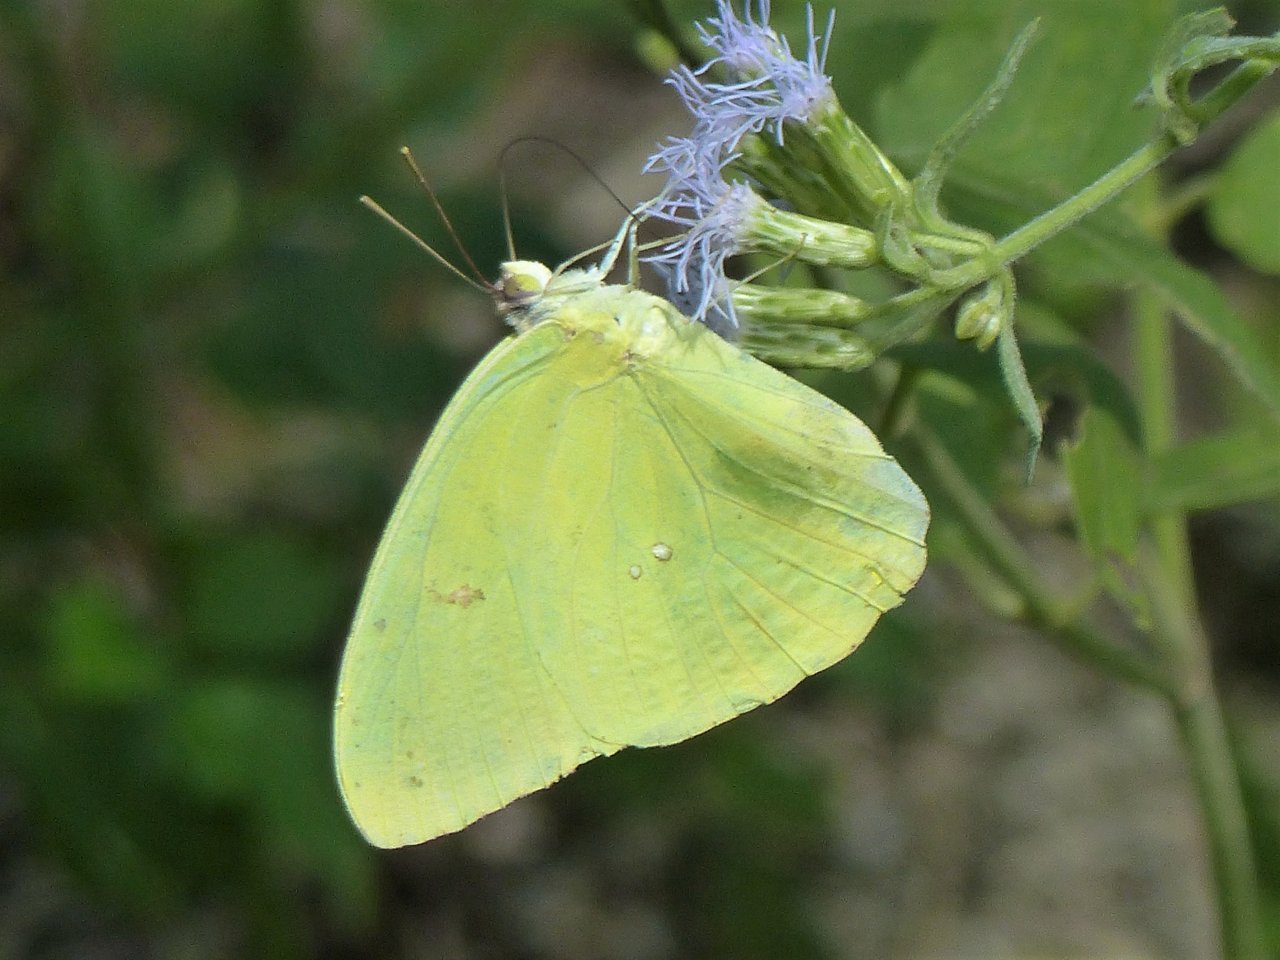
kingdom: Animalia
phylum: Arthropoda
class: Insecta
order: Lepidoptera
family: Pieridae
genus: Phoebis
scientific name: Phoebis sennae
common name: Cloudless Sulphur
